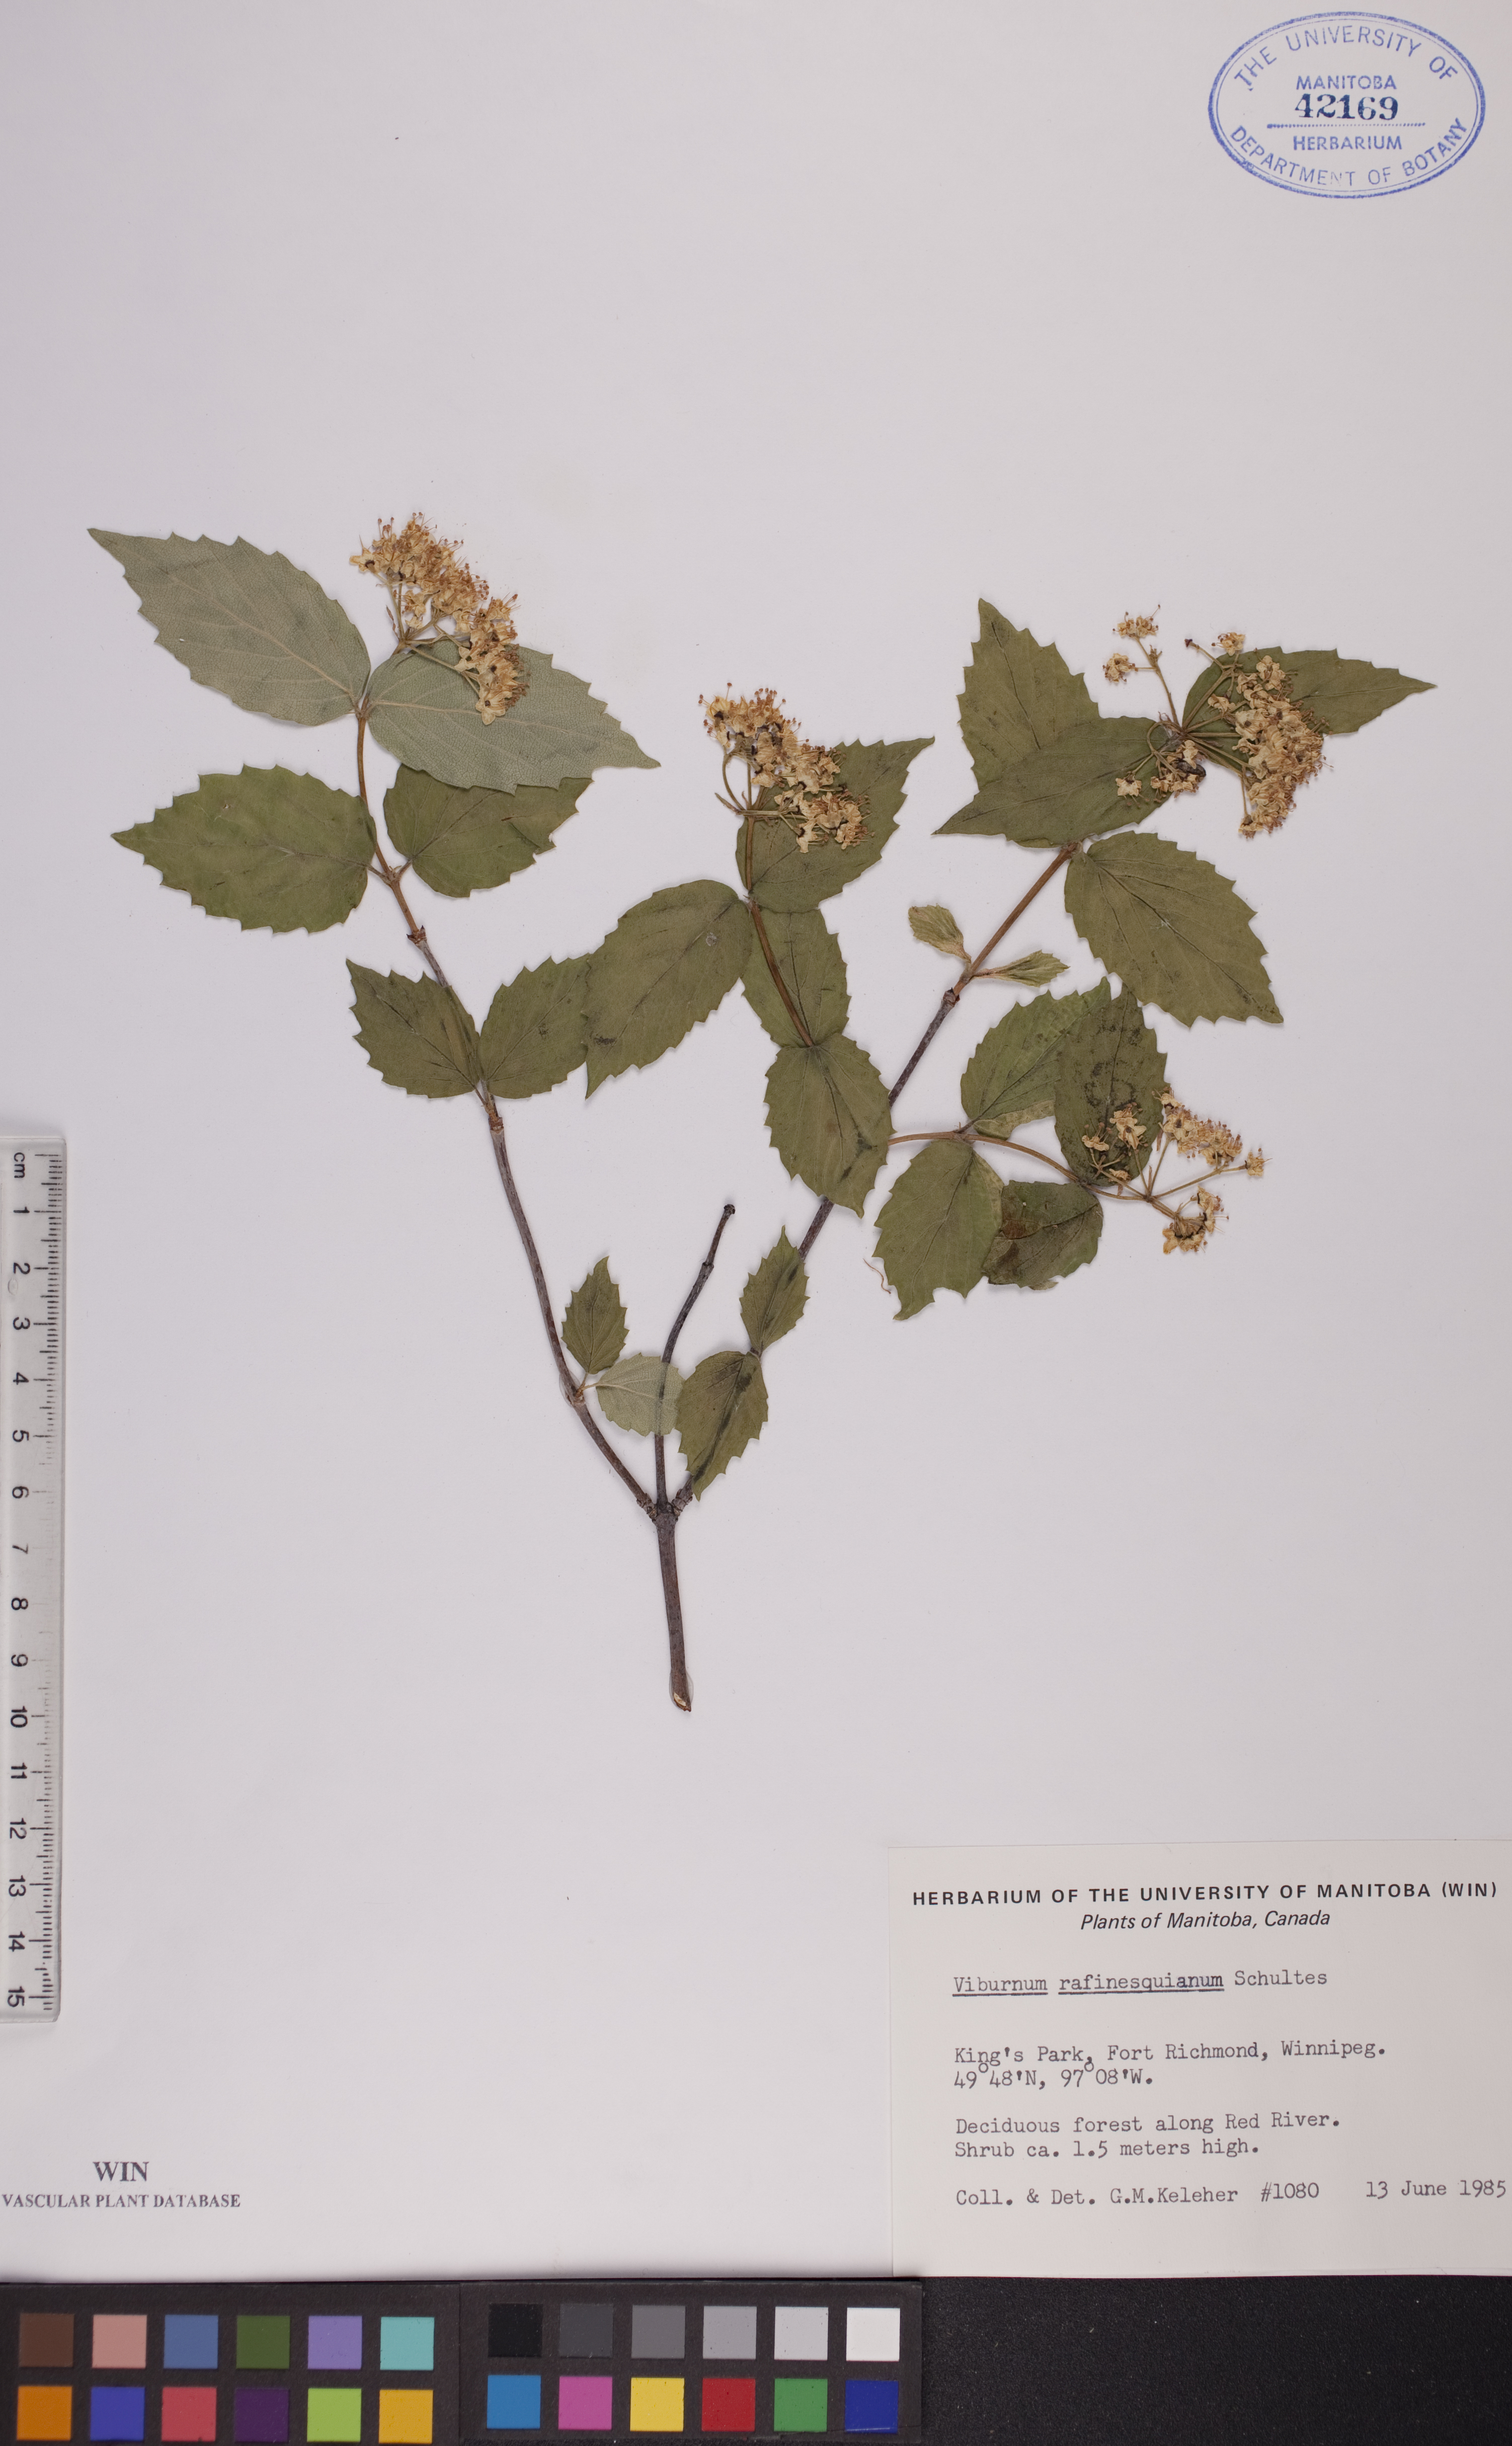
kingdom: Plantae
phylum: Tracheophyta
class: Magnoliopsida
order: Dipsacales
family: Viburnaceae
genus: Viburnum
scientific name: Viburnum rafinesquianum
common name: Downy arrow-wood
